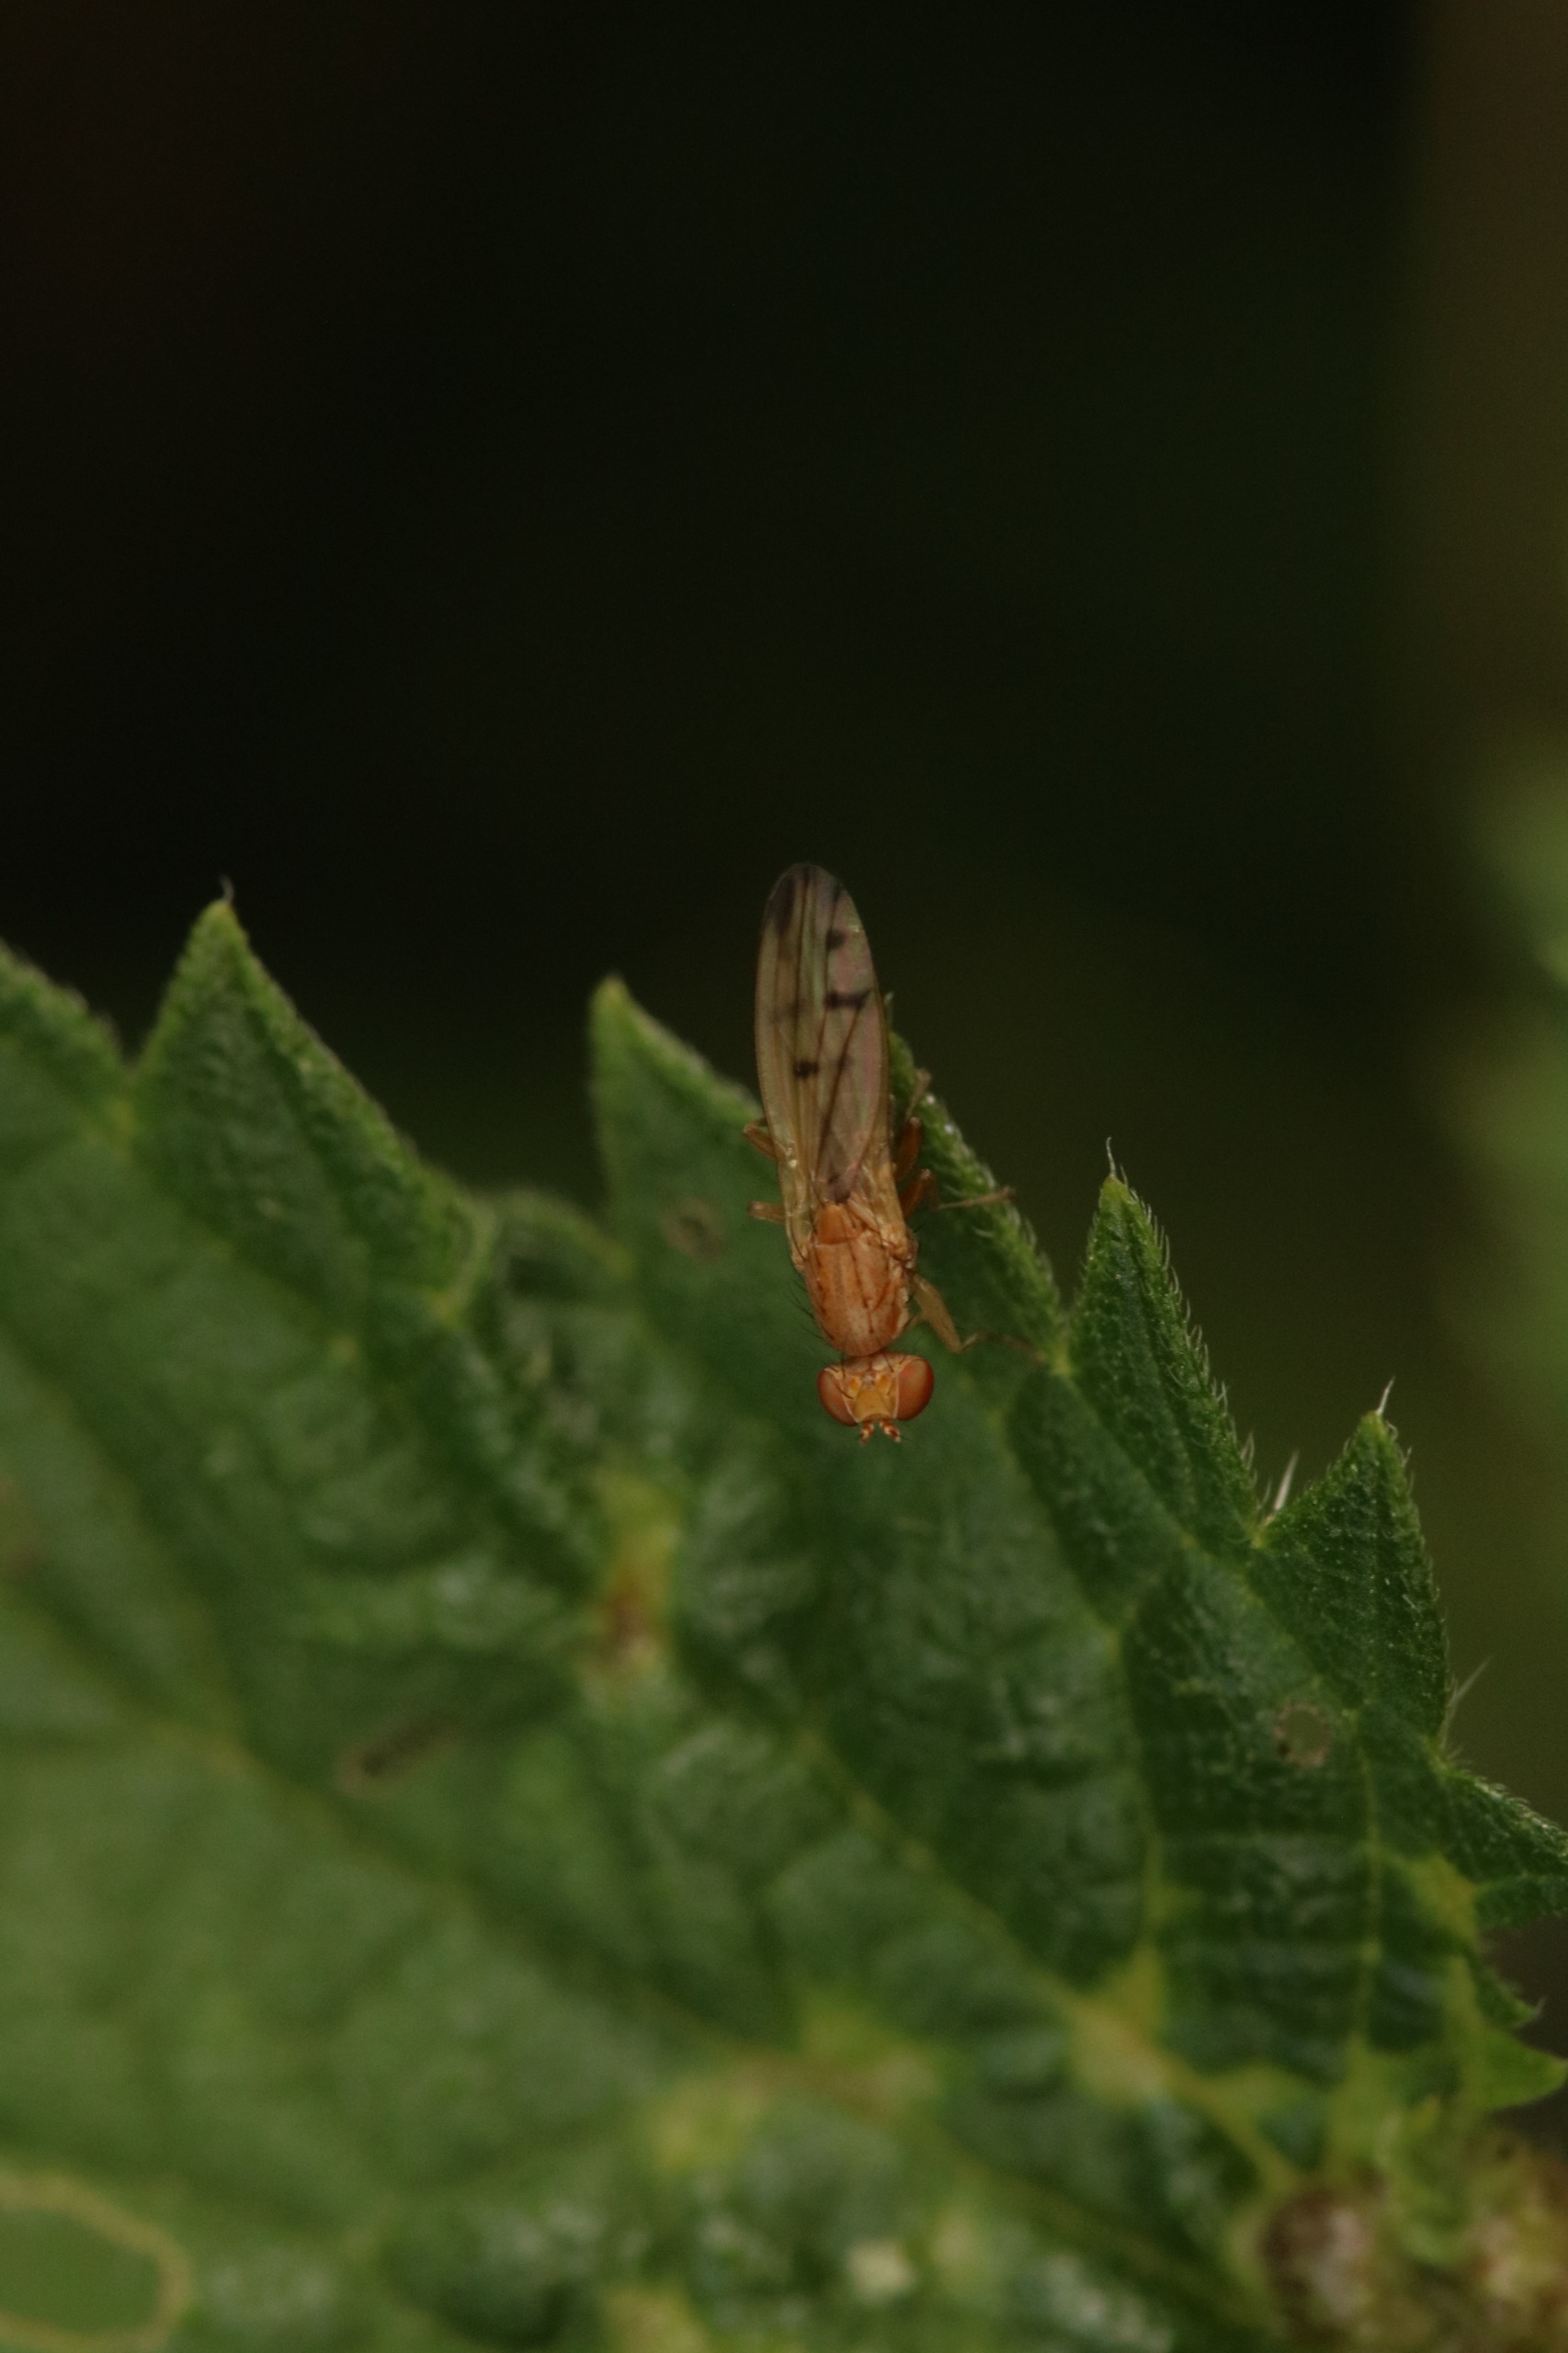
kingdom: Animalia
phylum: Arthropoda
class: Insecta
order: Diptera
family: Opomyzidae
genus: Opomyza
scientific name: Opomyza florum
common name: Gul græsflue
